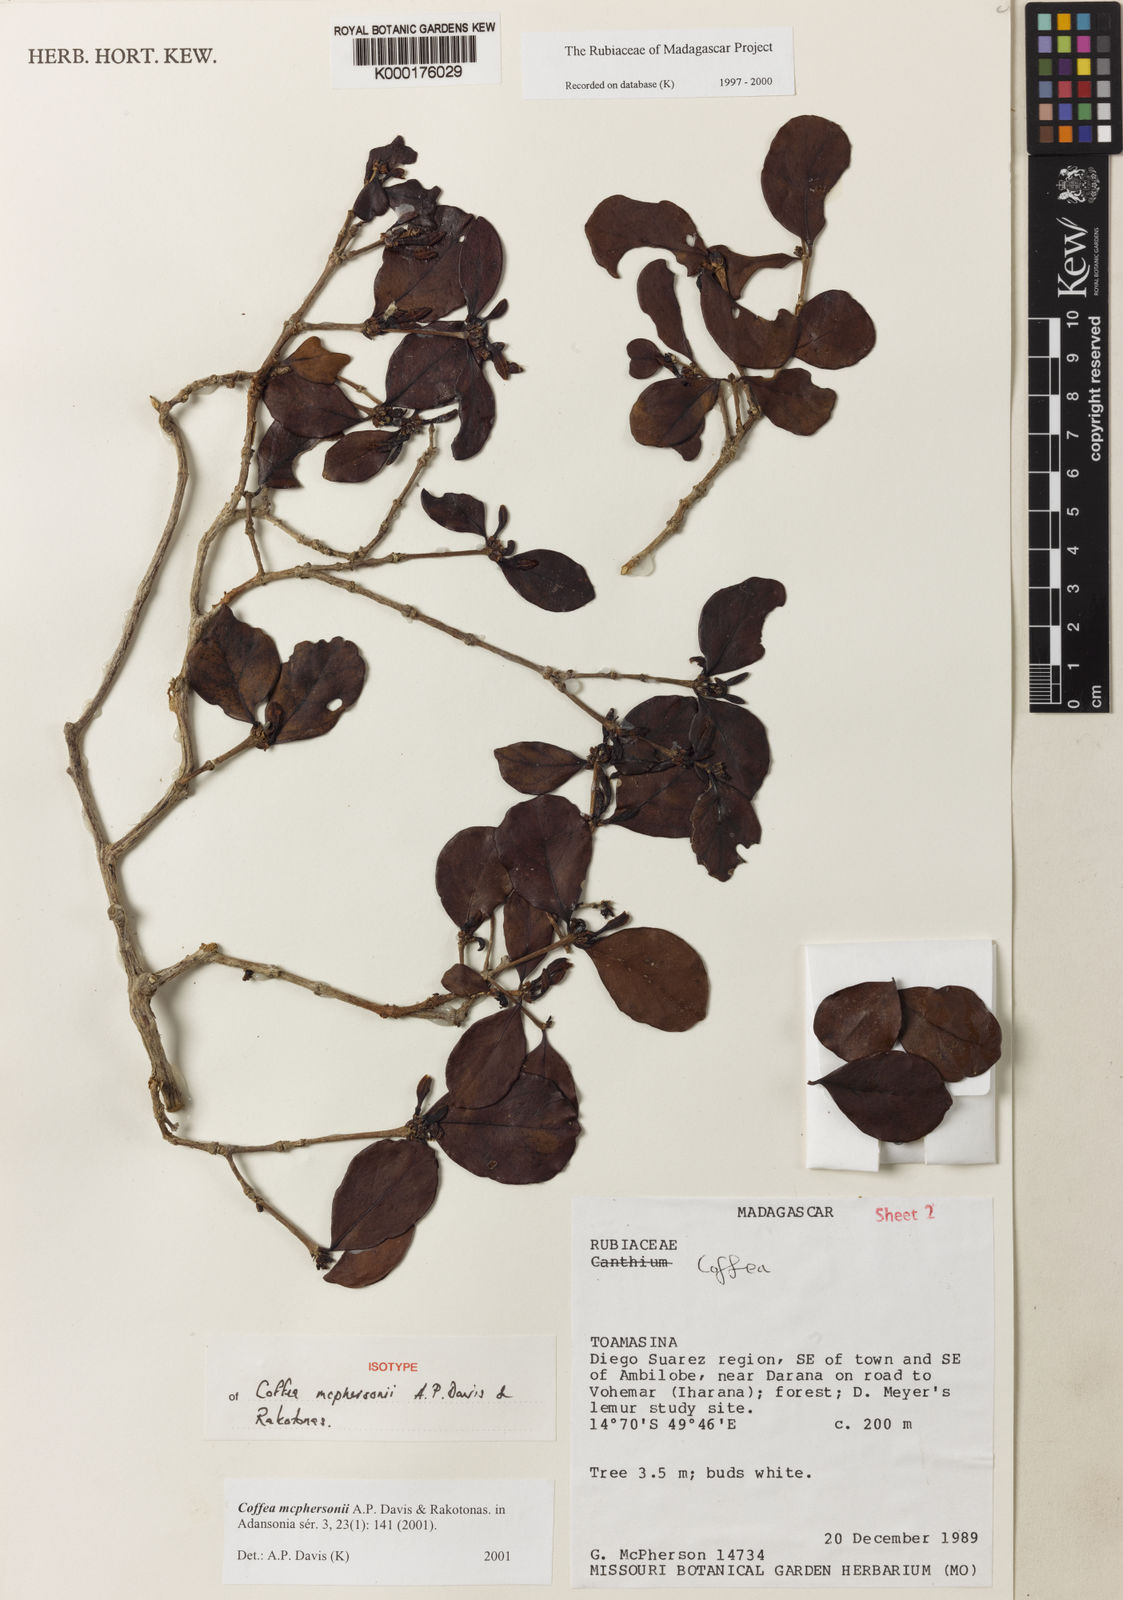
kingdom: Plantae
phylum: Tracheophyta
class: Magnoliopsida
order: Gentianales
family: Rubiaceae
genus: Coffea
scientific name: Coffea mcphersonii
